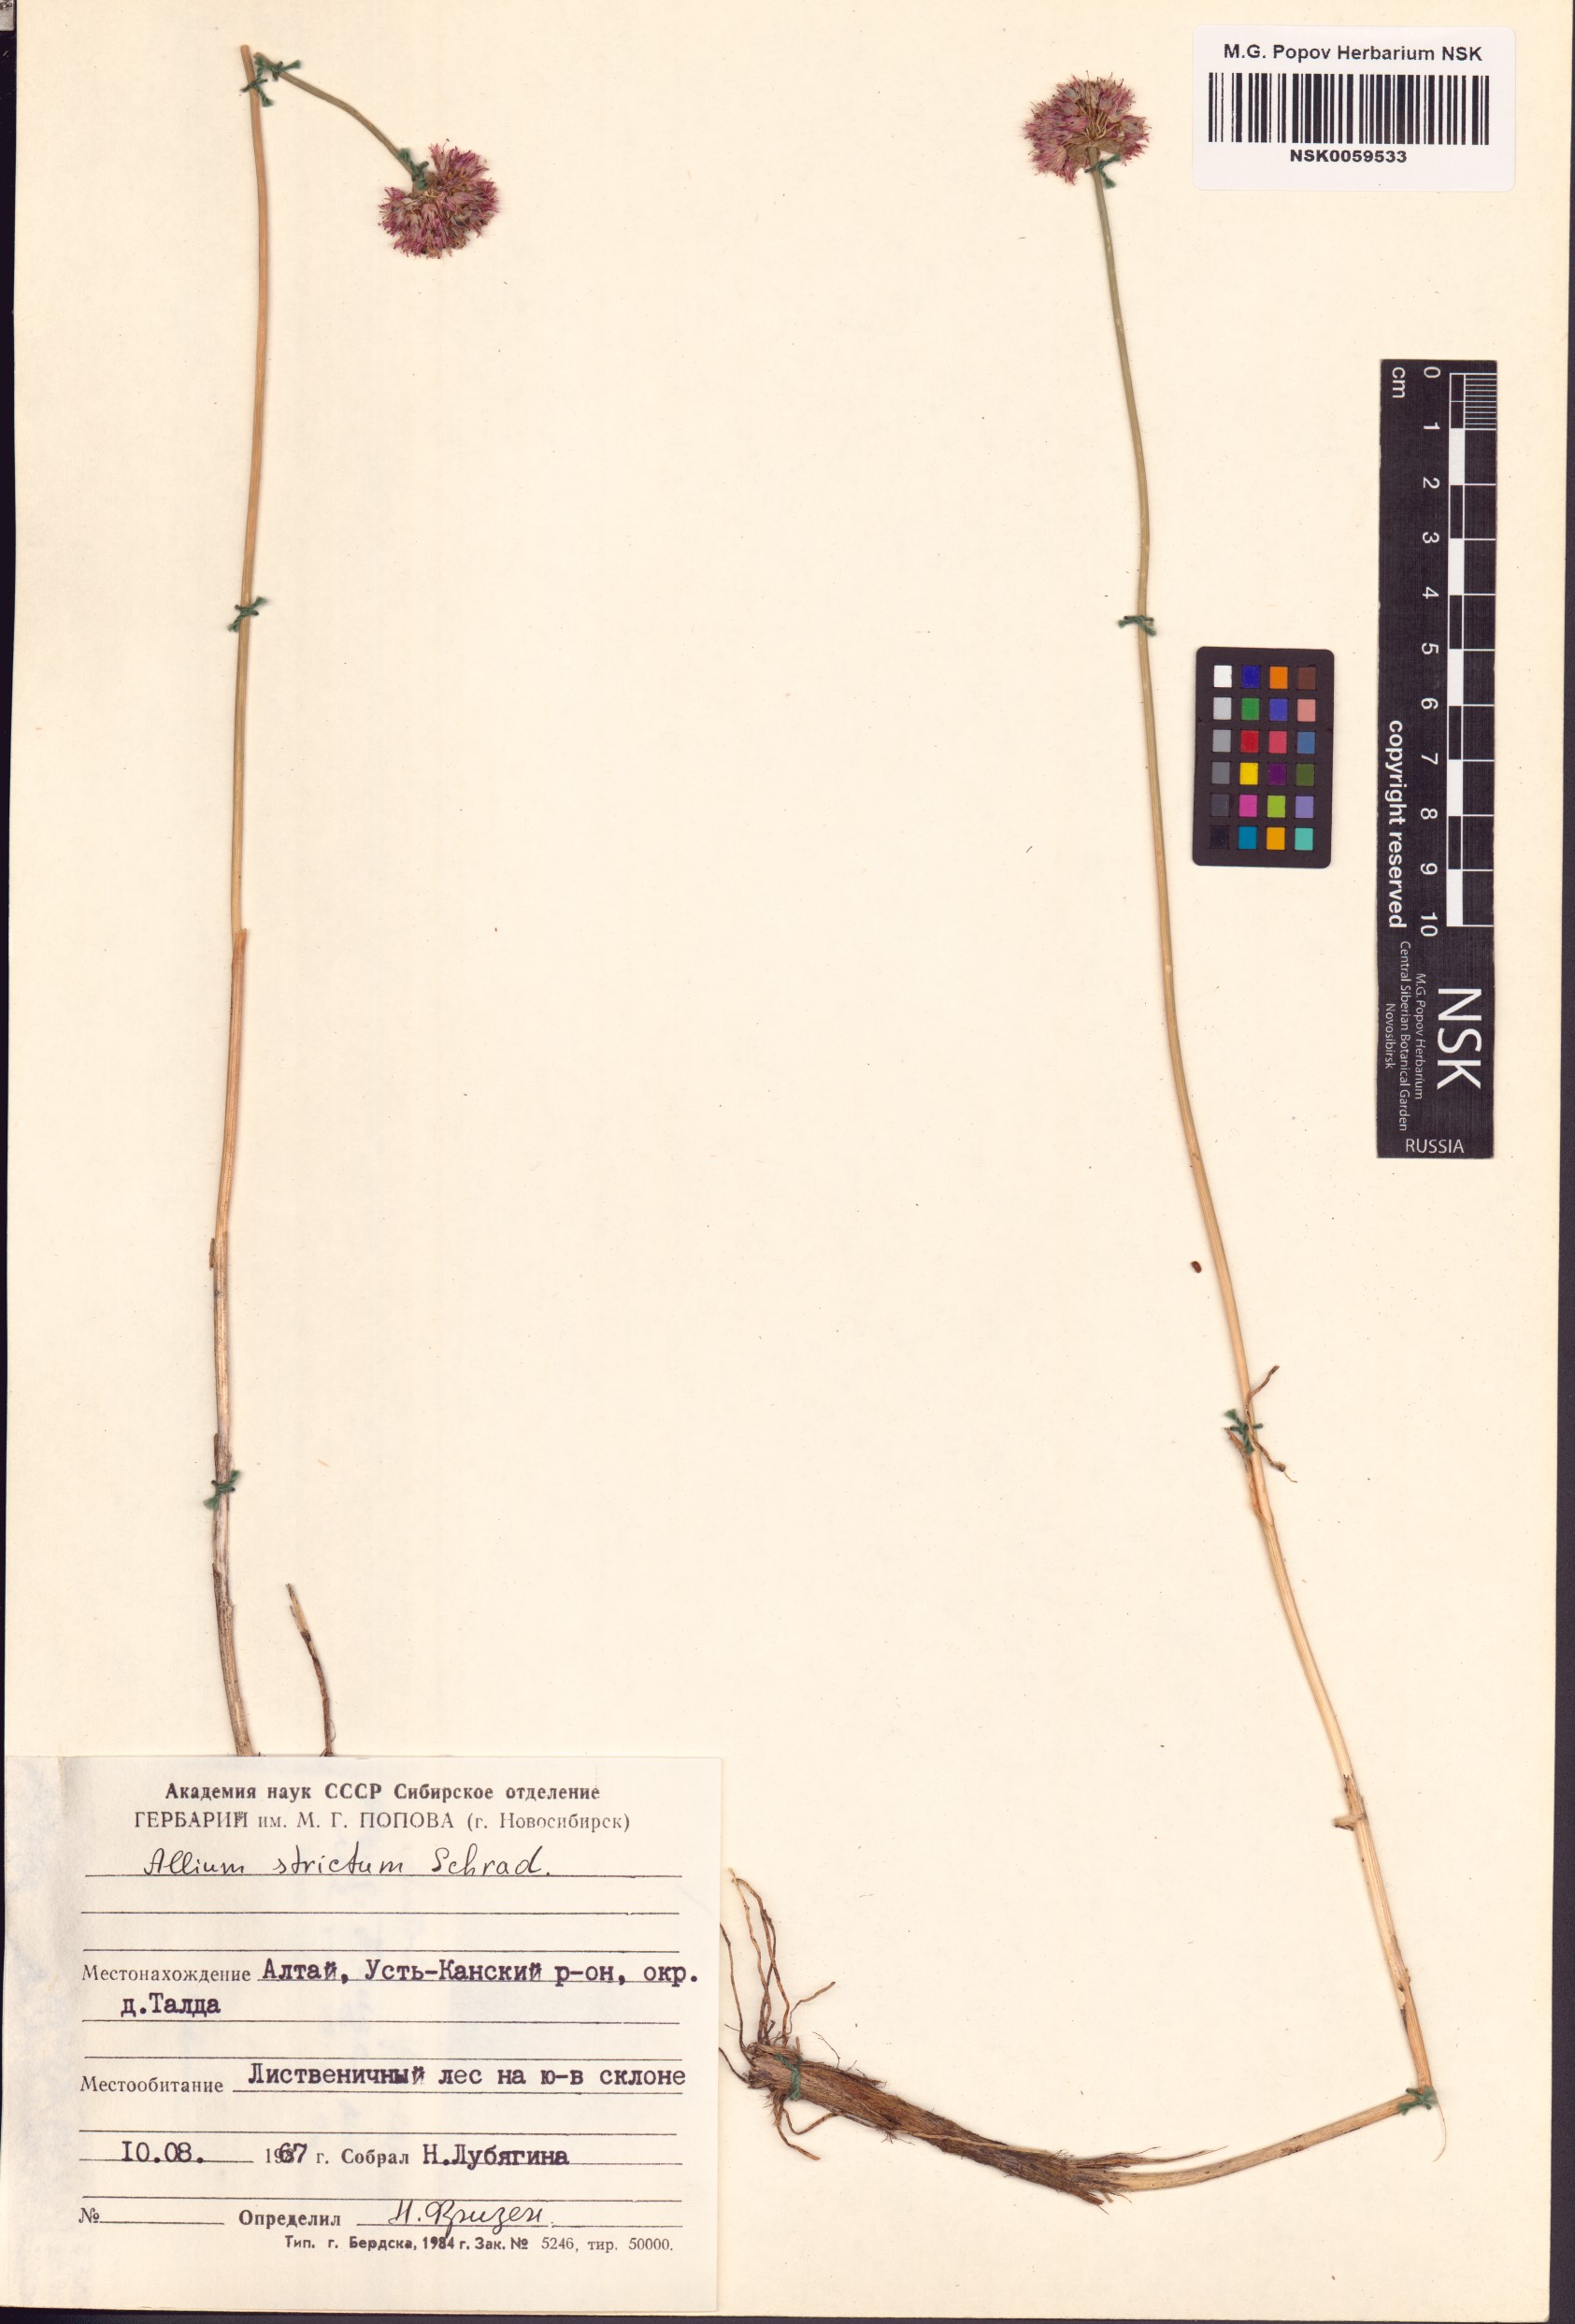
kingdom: Plantae
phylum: Tracheophyta
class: Liliopsida
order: Asparagales
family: Amaryllidaceae
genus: Allium
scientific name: Allium strictum
